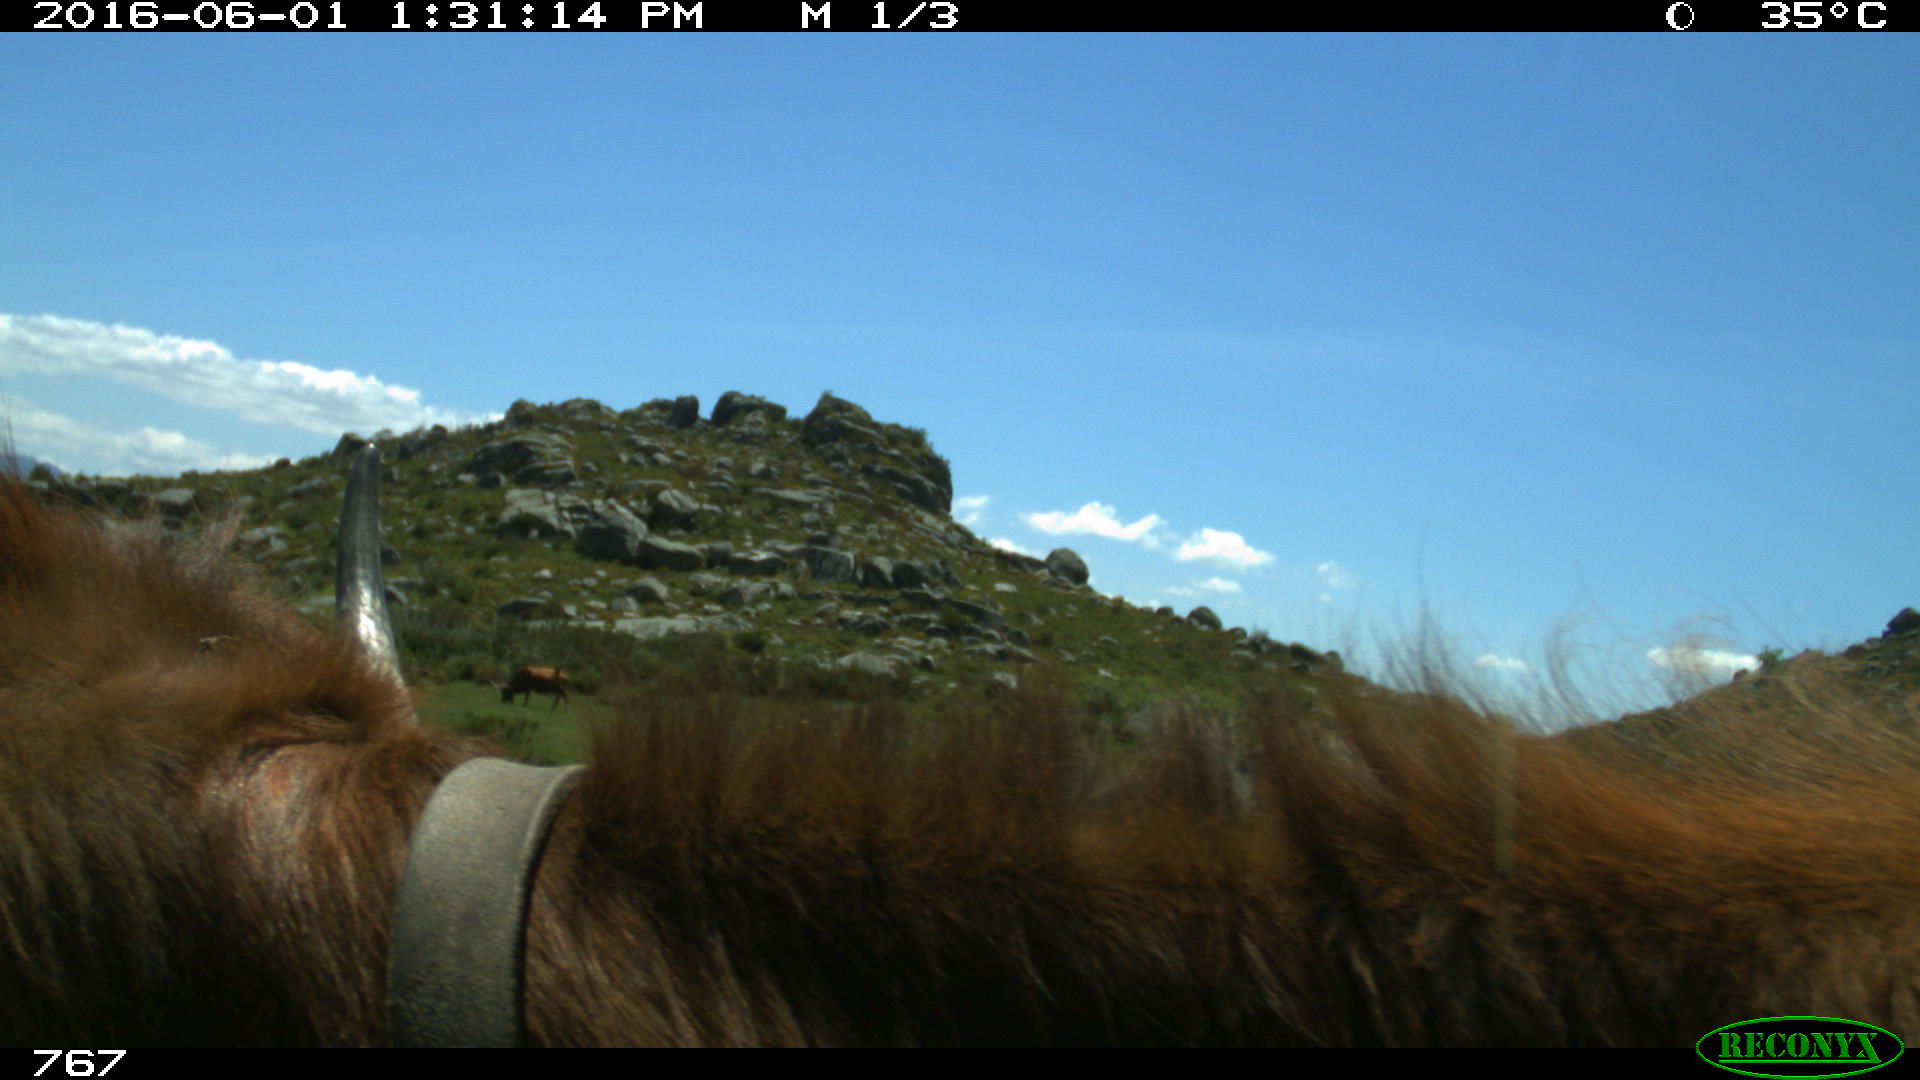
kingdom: Animalia
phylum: Chordata
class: Mammalia
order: Artiodactyla
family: Bovidae
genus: Bos
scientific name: Bos taurus
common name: Domesticated cattle
